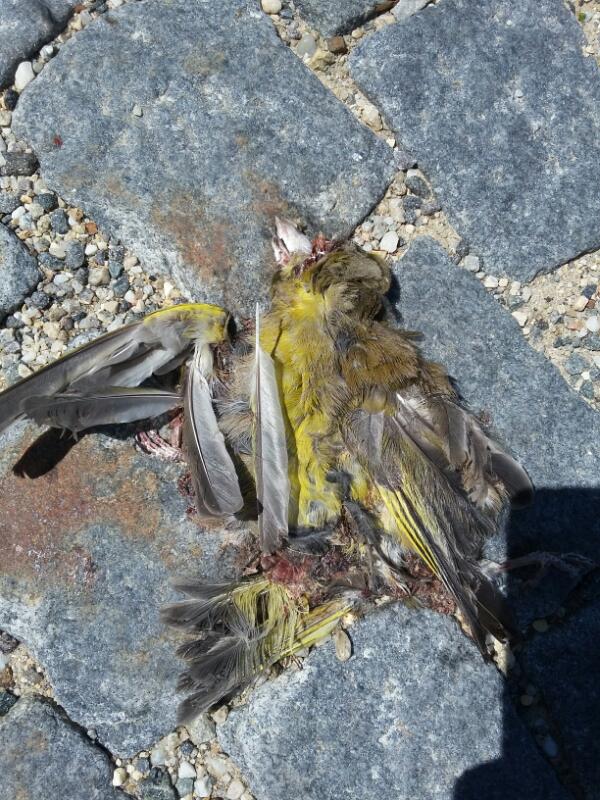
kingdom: Plantae
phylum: Tracheophyta
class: Liliopsida
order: Poales
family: Poaceae
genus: Chloris
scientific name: Chloris chloris
